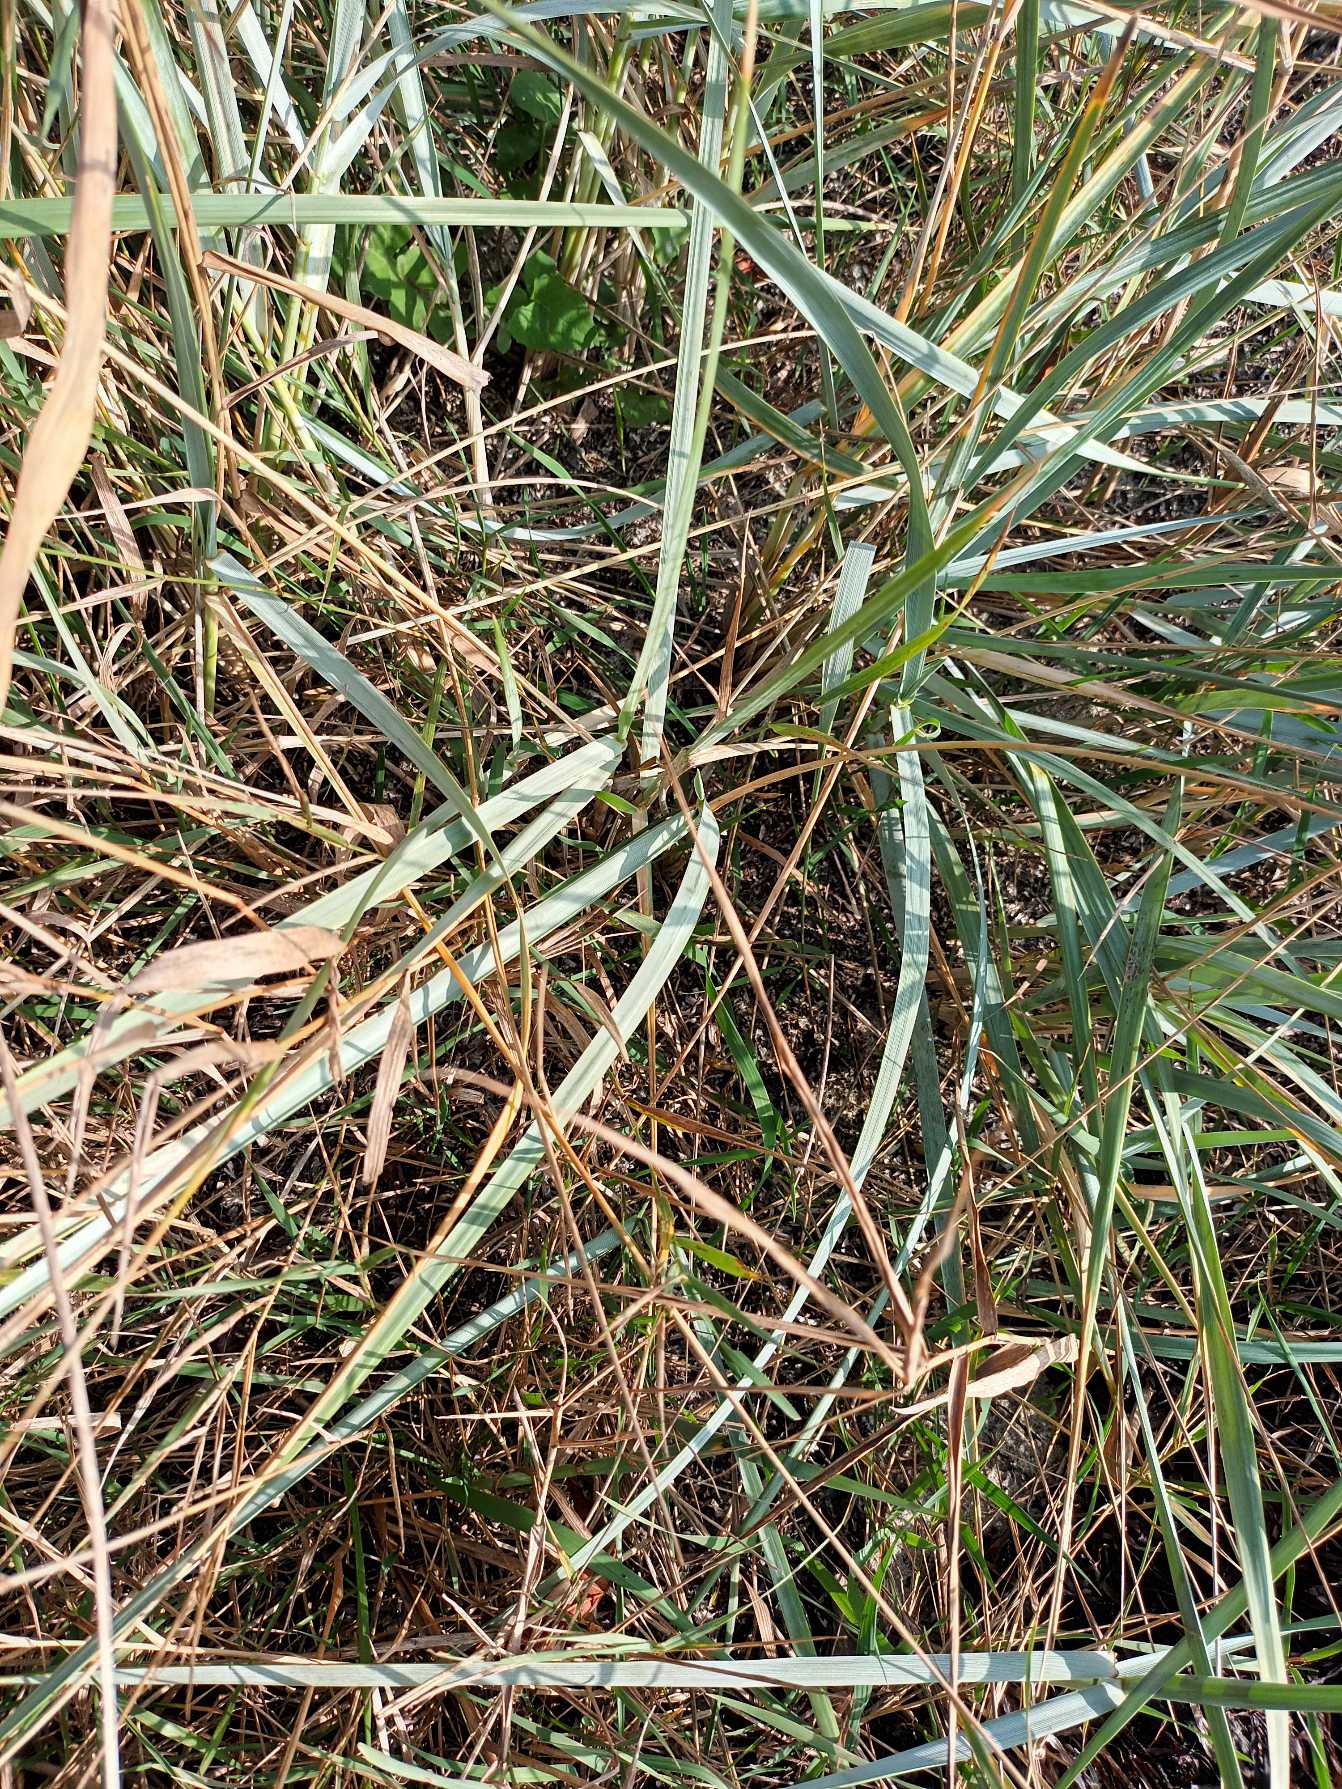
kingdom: Plantae
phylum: Tracheophyta
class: Liliopsida
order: Poales
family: Poaceae
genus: Leymus
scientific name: Leymus arenarius
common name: Marehalm
